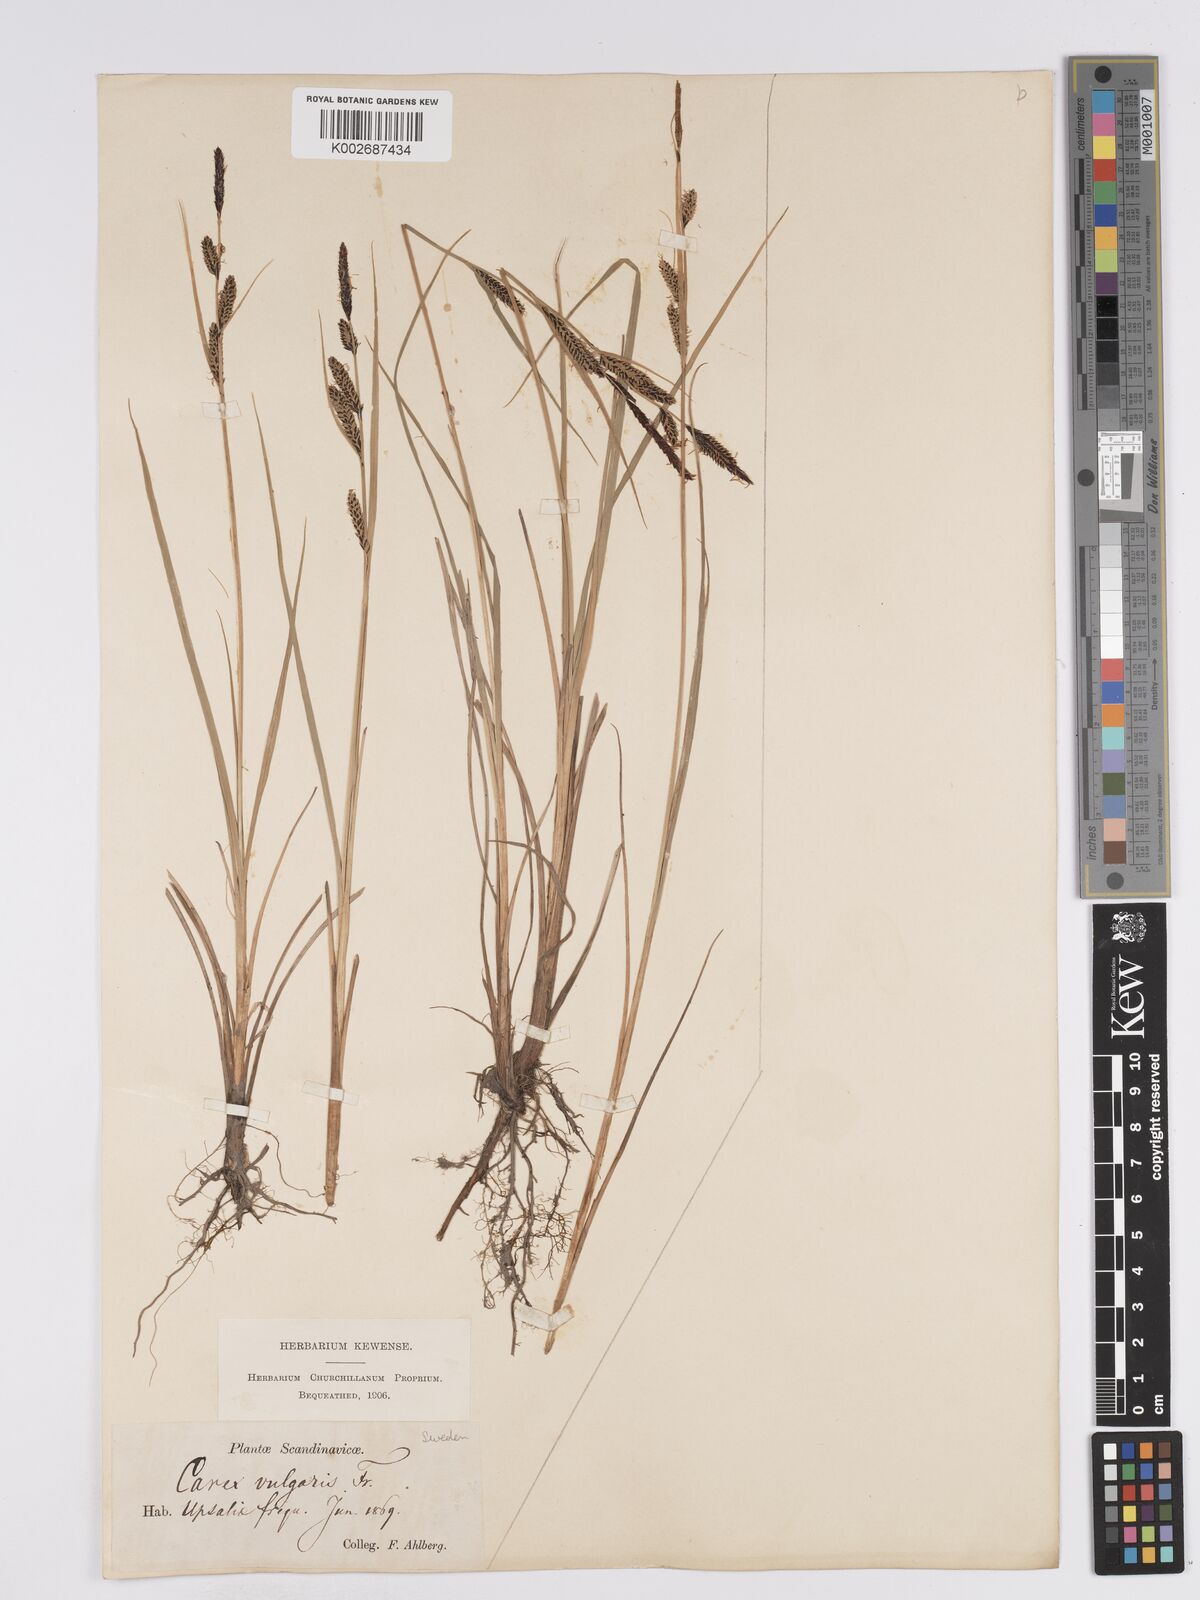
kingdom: Plantae
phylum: Tracheophyta
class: Liliopsida
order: Poales
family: Cyperaceae
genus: Carex
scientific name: Carex nigra
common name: Common sedge
